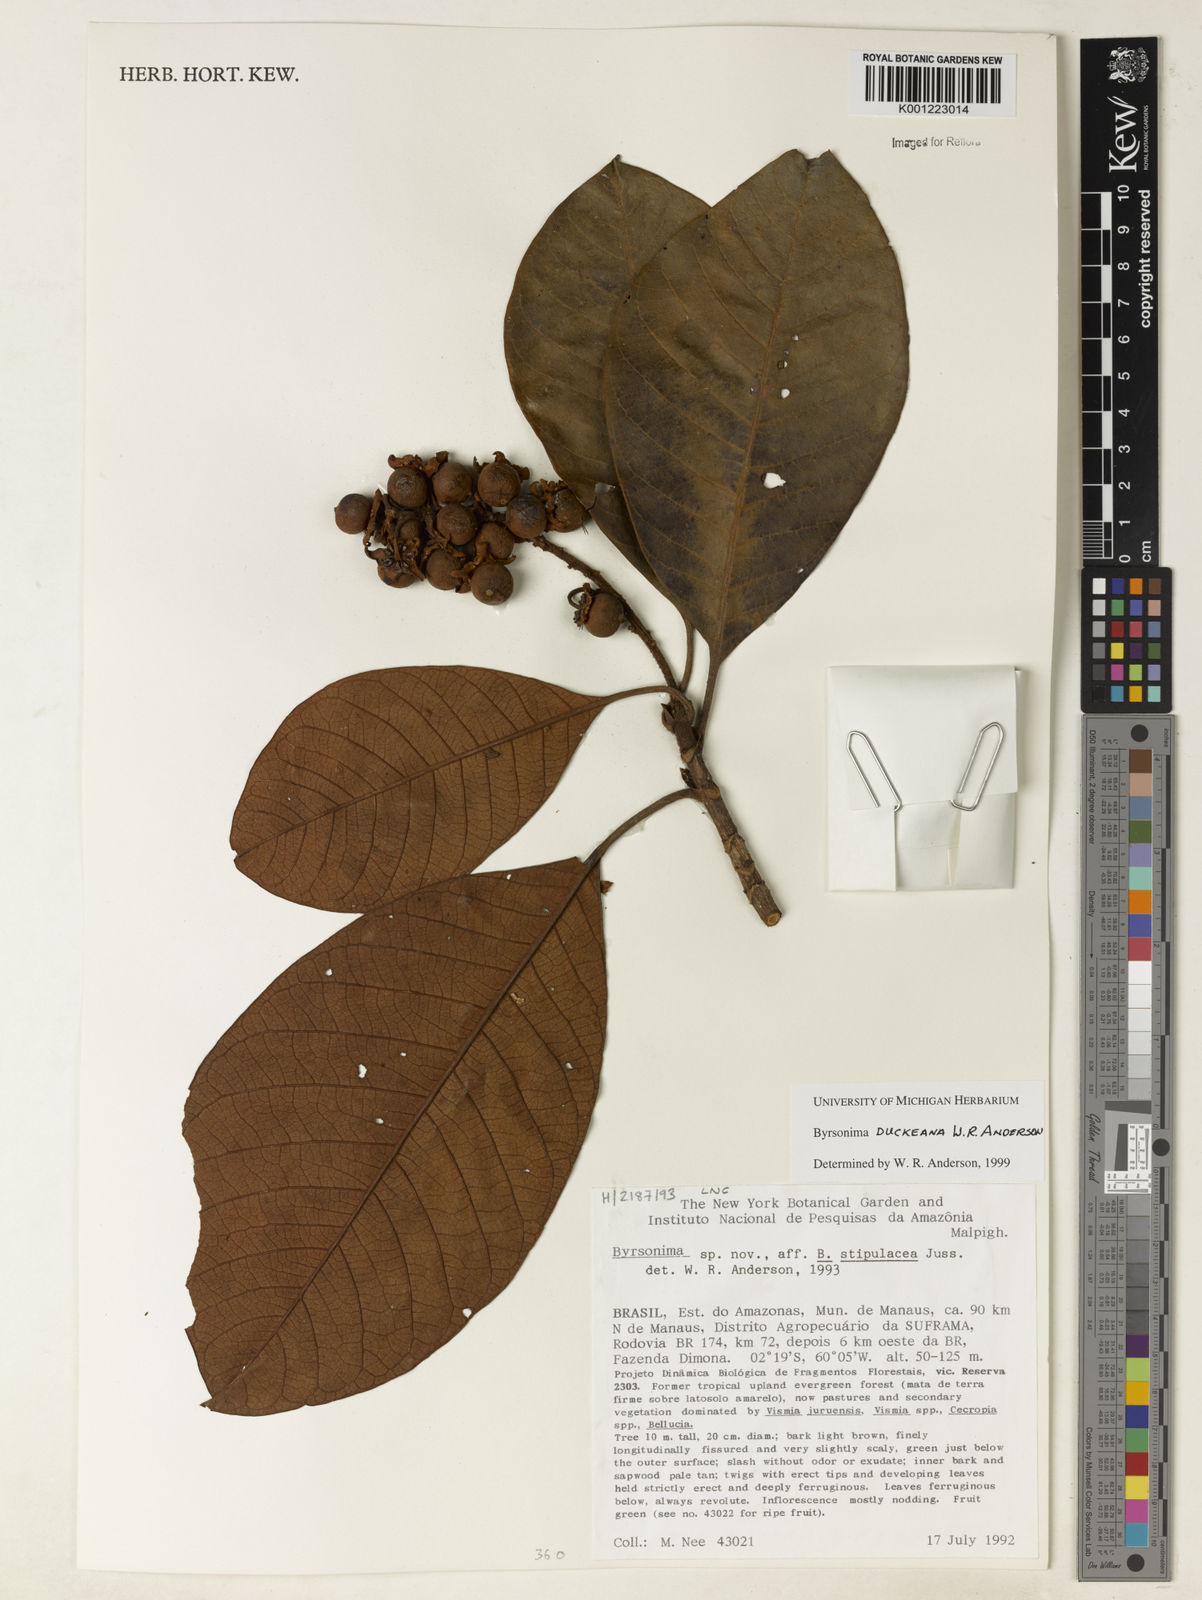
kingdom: Plantae
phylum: Tracheophyta
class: Magnoliopsida
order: Malpighiales
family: Malpighiaceae
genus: Byrsonima
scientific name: Byrsonima duckeana
